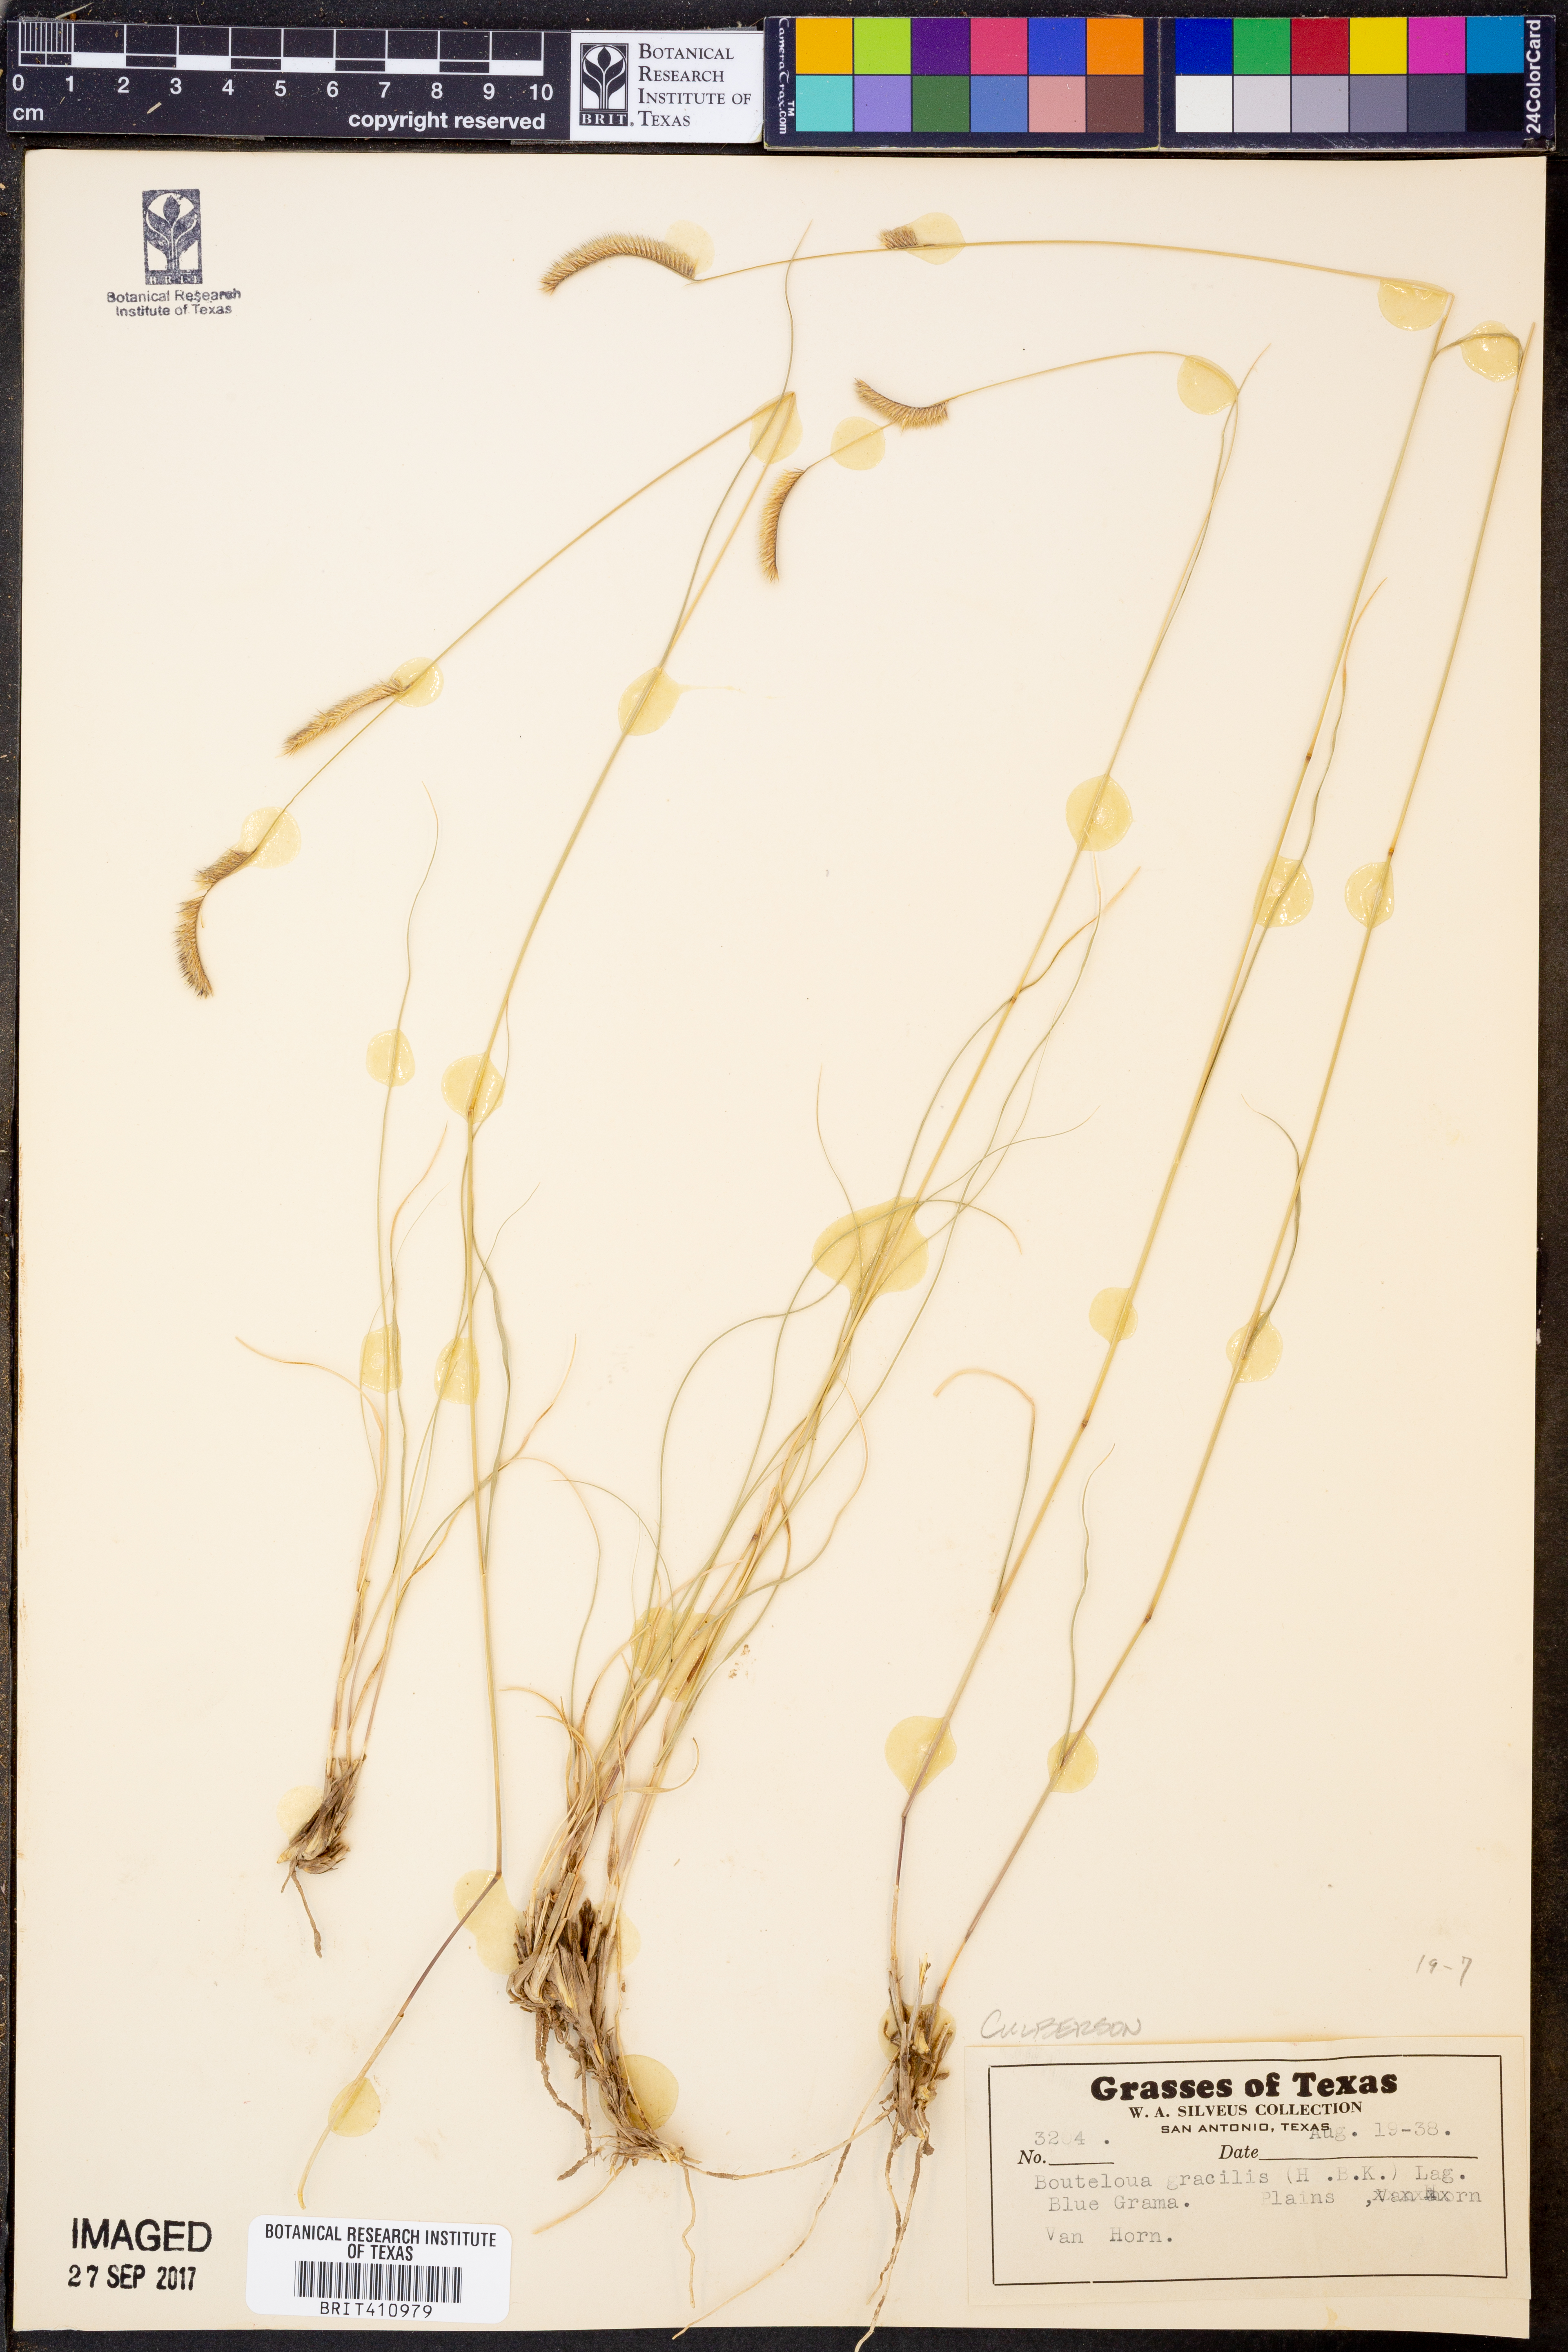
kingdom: Plantae
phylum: Tracheophyta
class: Liliopsida
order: Poales
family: Poaceae
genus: Bouteloua
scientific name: Bouteloua gracilis
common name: Blue grama
